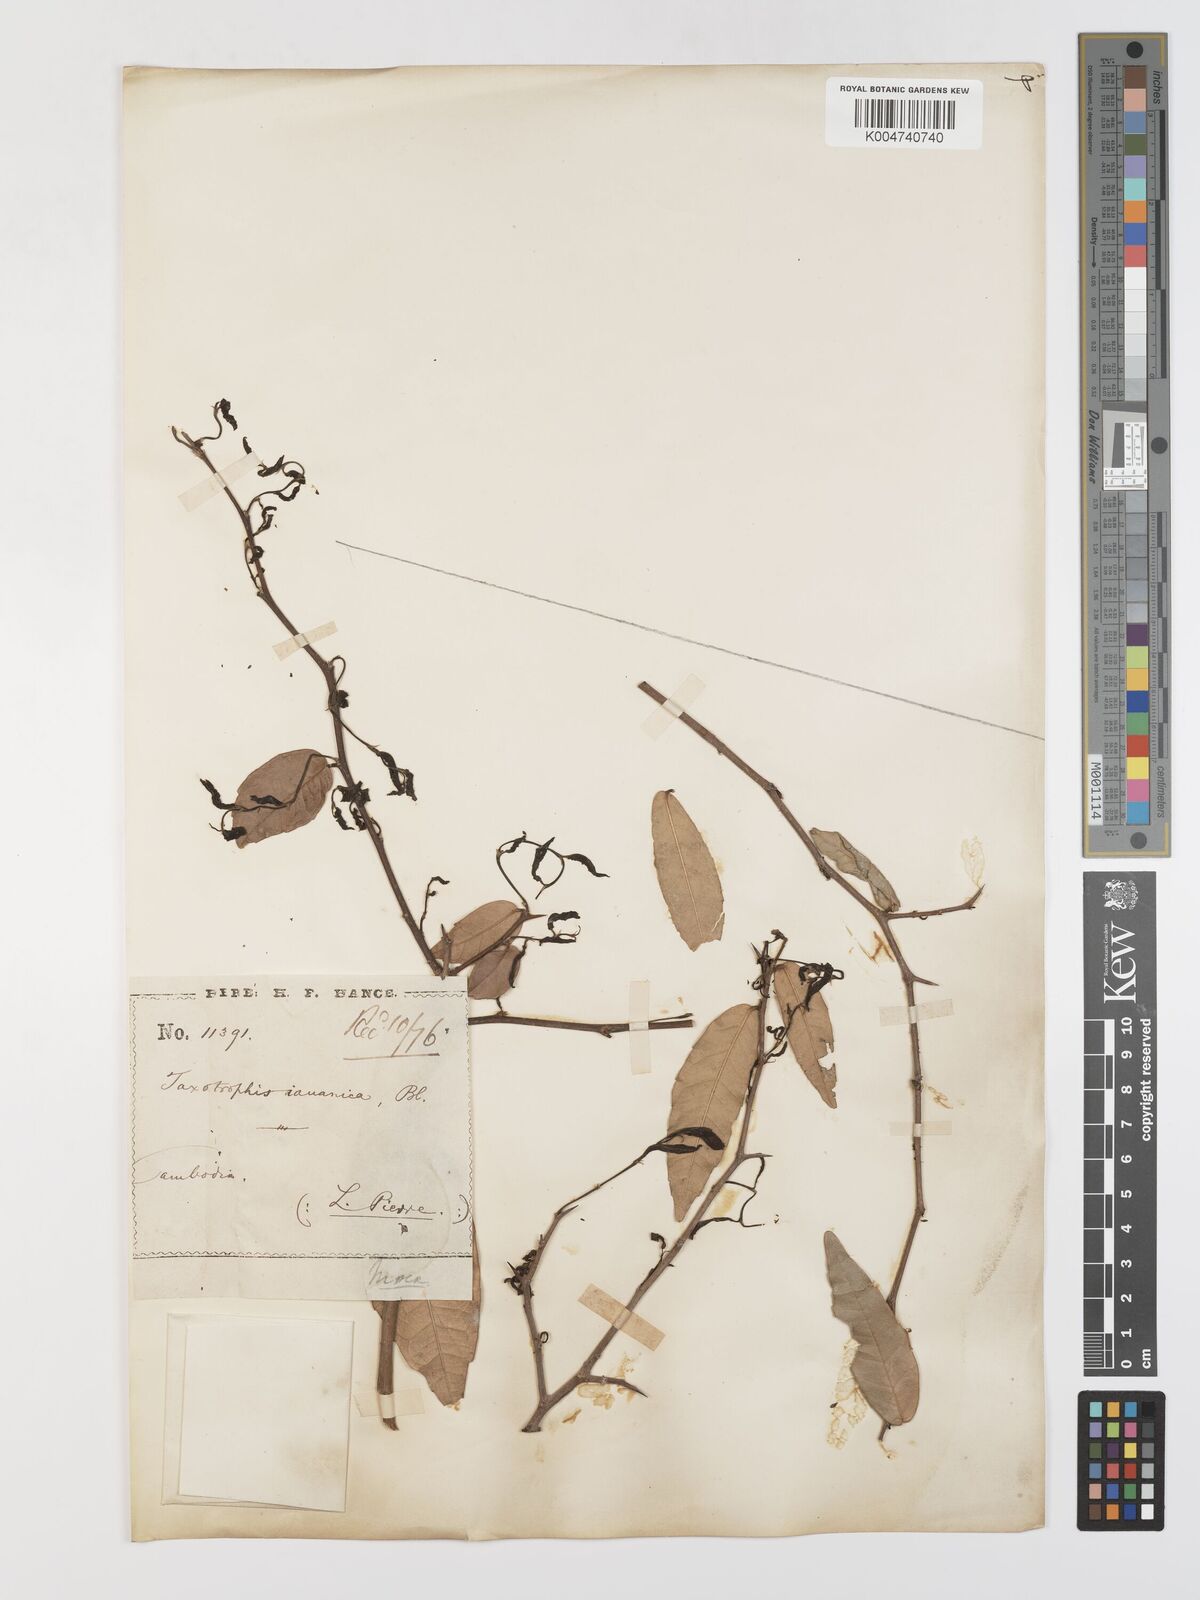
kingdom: Plantae
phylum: Tracheophyta
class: Magnoliopsida
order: Rosales
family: Moraceae
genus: Taxotrophis
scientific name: Taxotrophis spinosa
